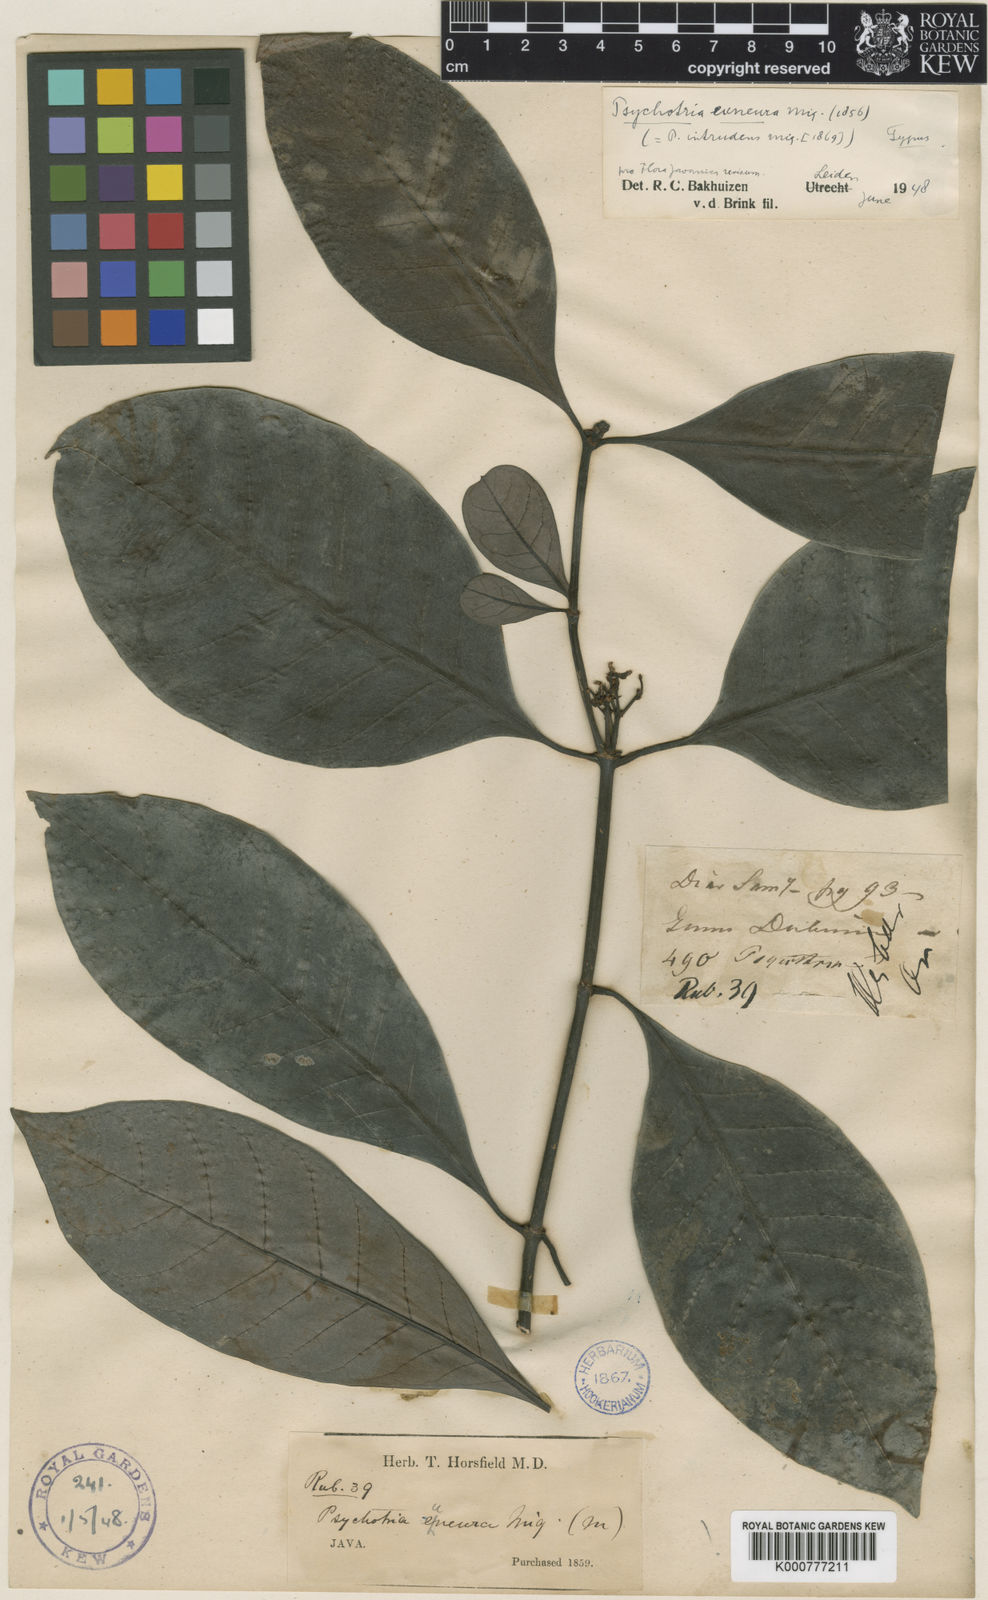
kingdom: Plantae
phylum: Tracheophyta
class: Magnoliopsida
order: Gentianales
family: Rubiaceae
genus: Psychotria
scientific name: Psychotria euneura
